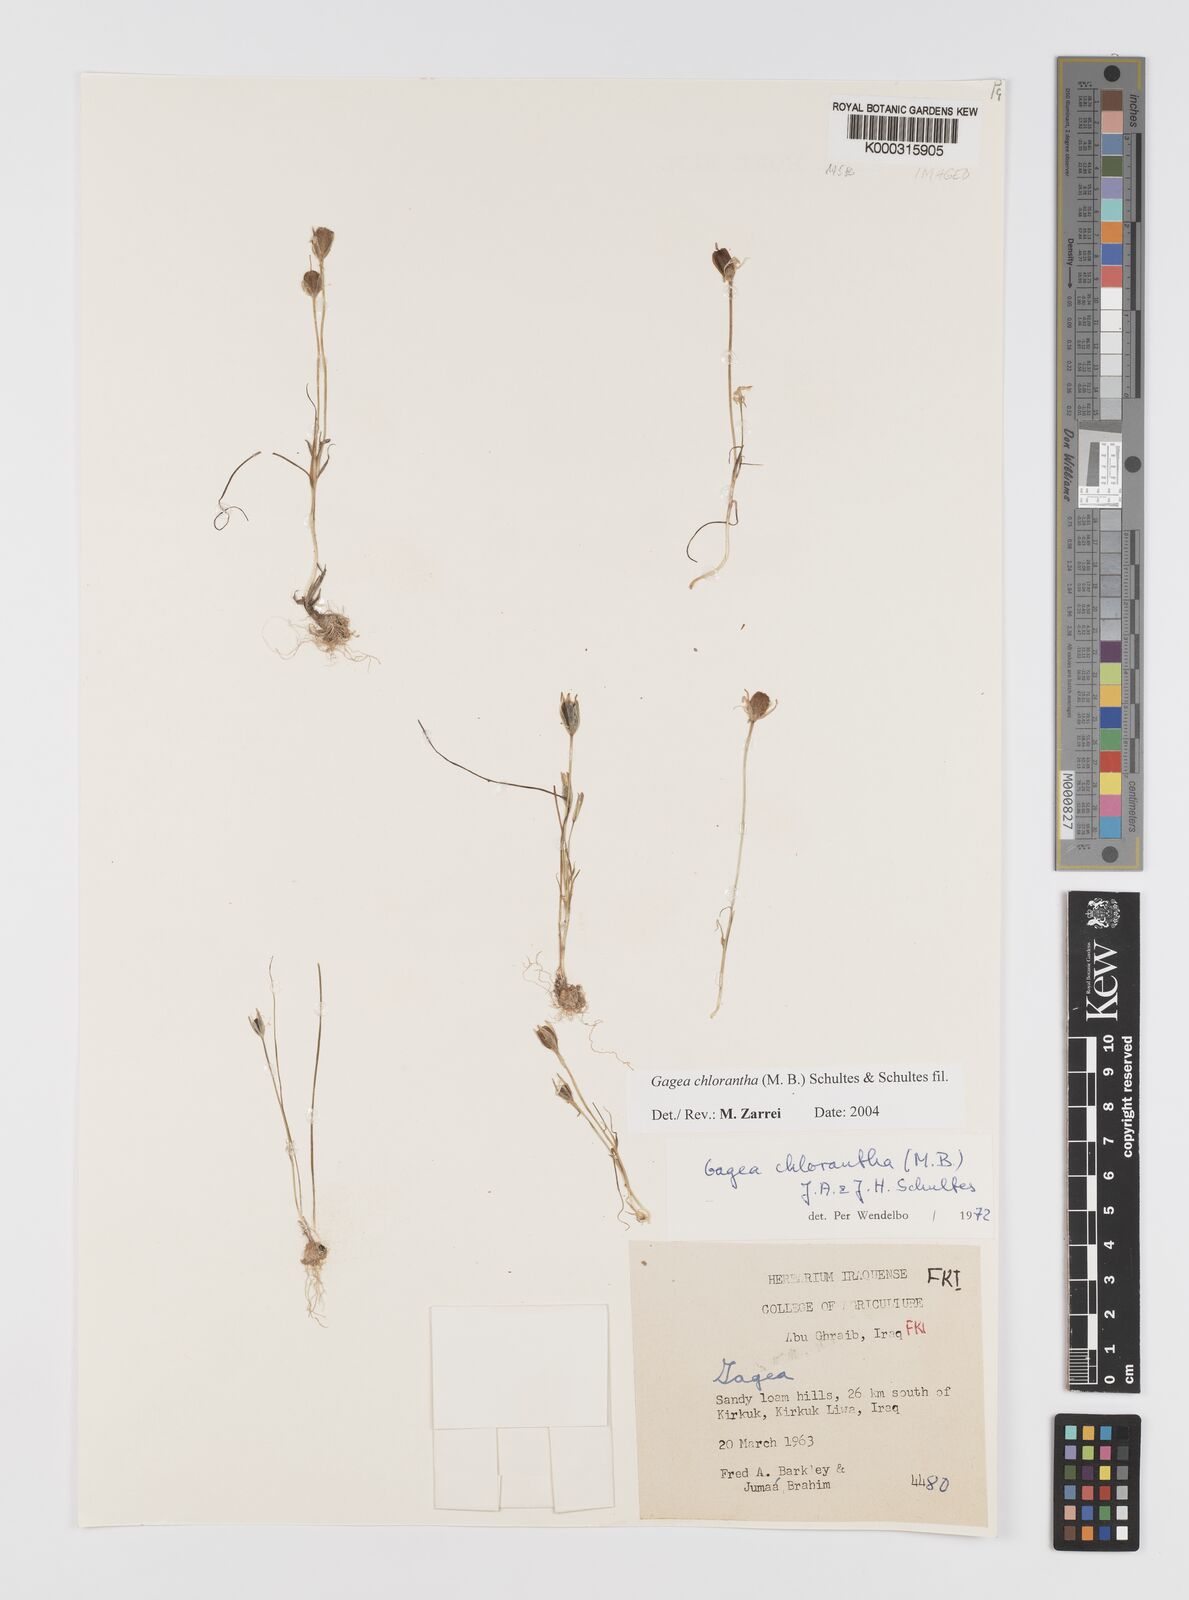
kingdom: Plantae
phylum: Tracheophyta
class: Liliopsida
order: Liliales
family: Liliaceae
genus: Gagea
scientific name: Gagea chlorantha
